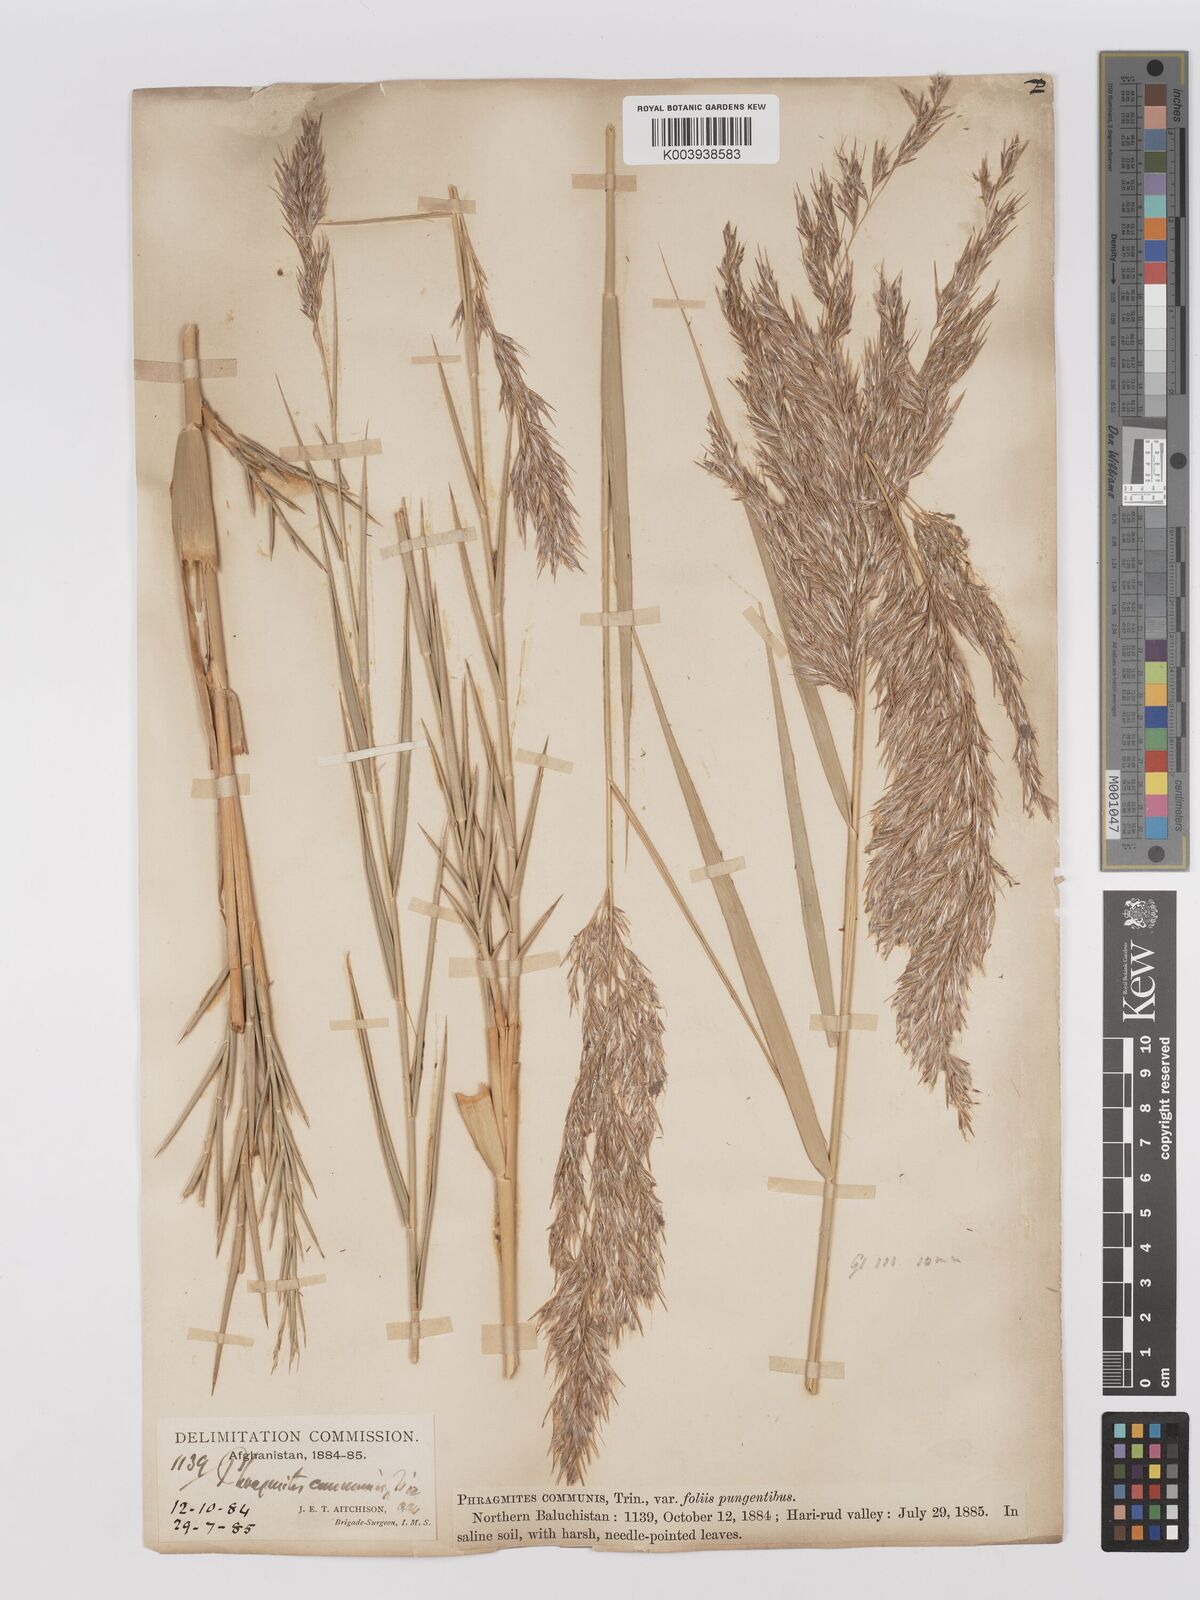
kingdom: Plantae
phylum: Tracheophyta
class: Liliopsida
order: Poales
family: Poaceae
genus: Phragmites
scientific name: Phragmites australis
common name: Common reed
